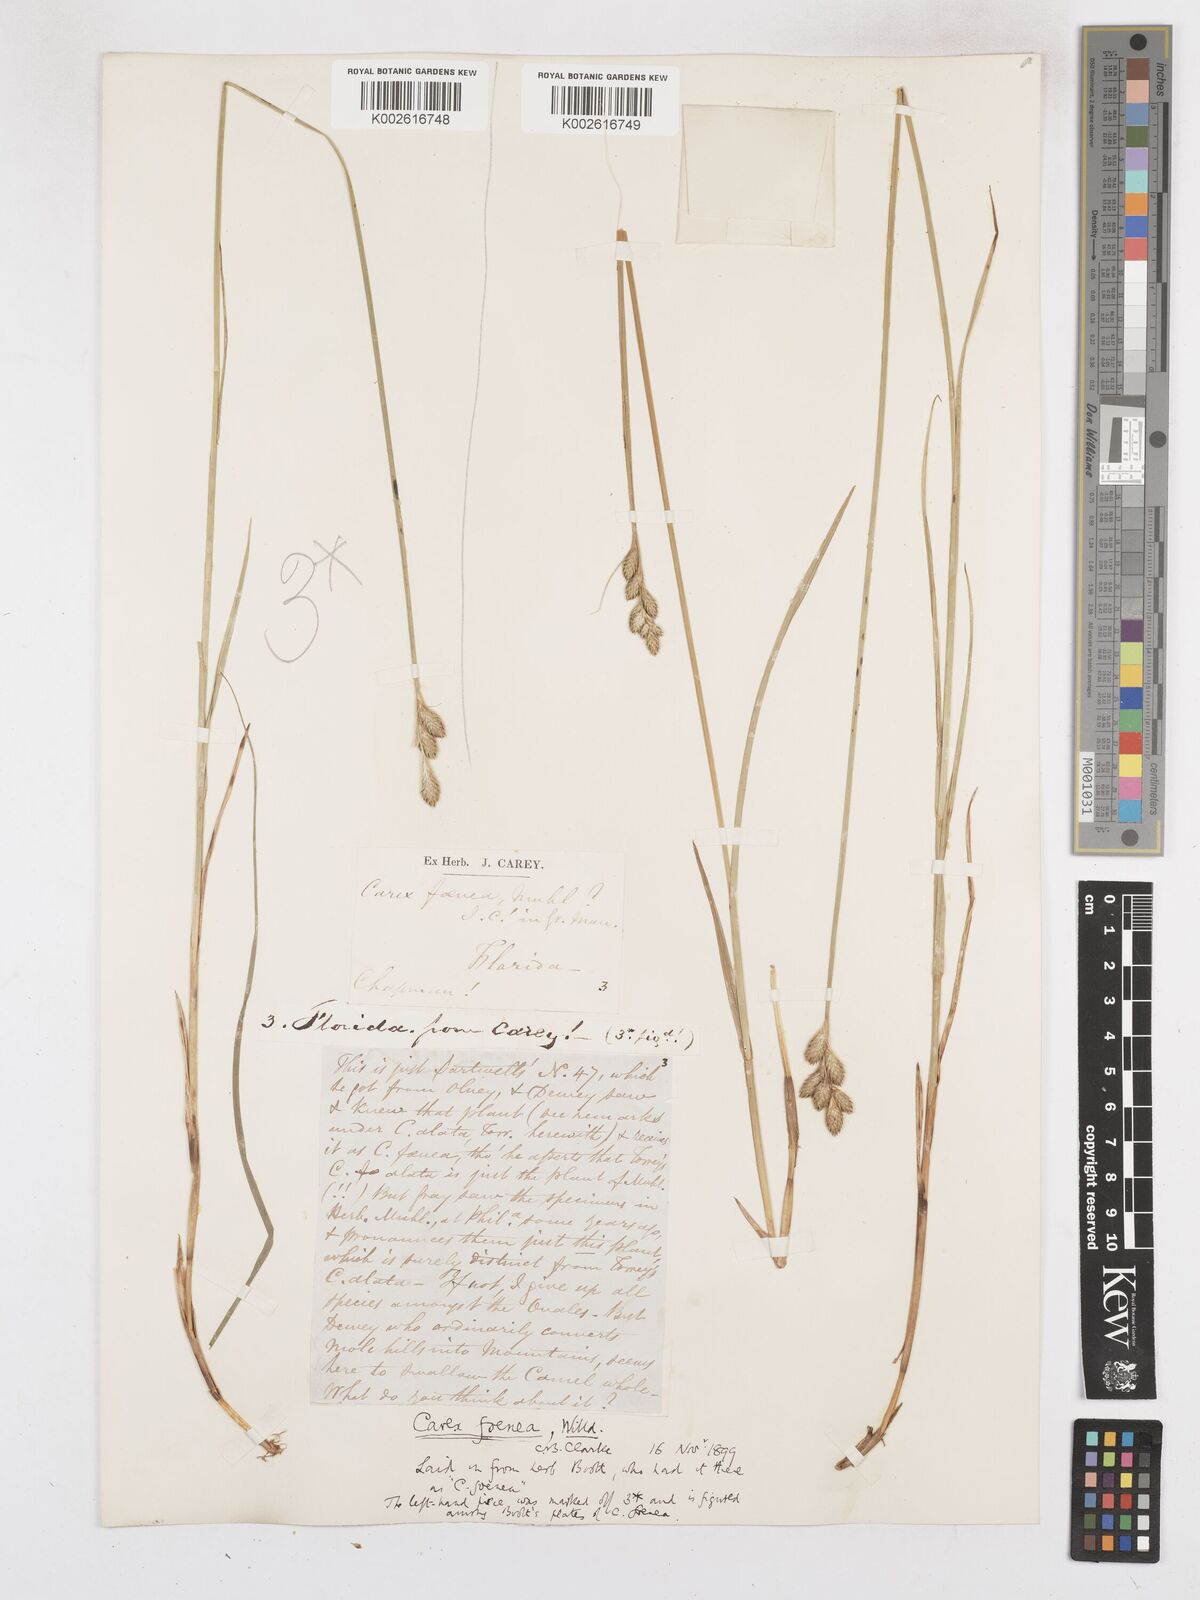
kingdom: Plantae
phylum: Tracheophyta
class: Liliopsida
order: Poales
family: Cyperaceae
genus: Carex
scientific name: Carex argyrantha
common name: Silvery-flowered sedge
